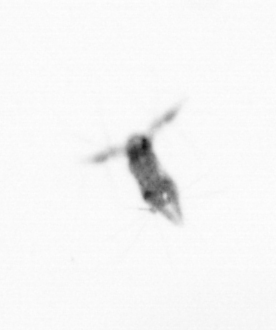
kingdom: Animalia
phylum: Arthropoda
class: Copepoda
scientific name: Copepoda
